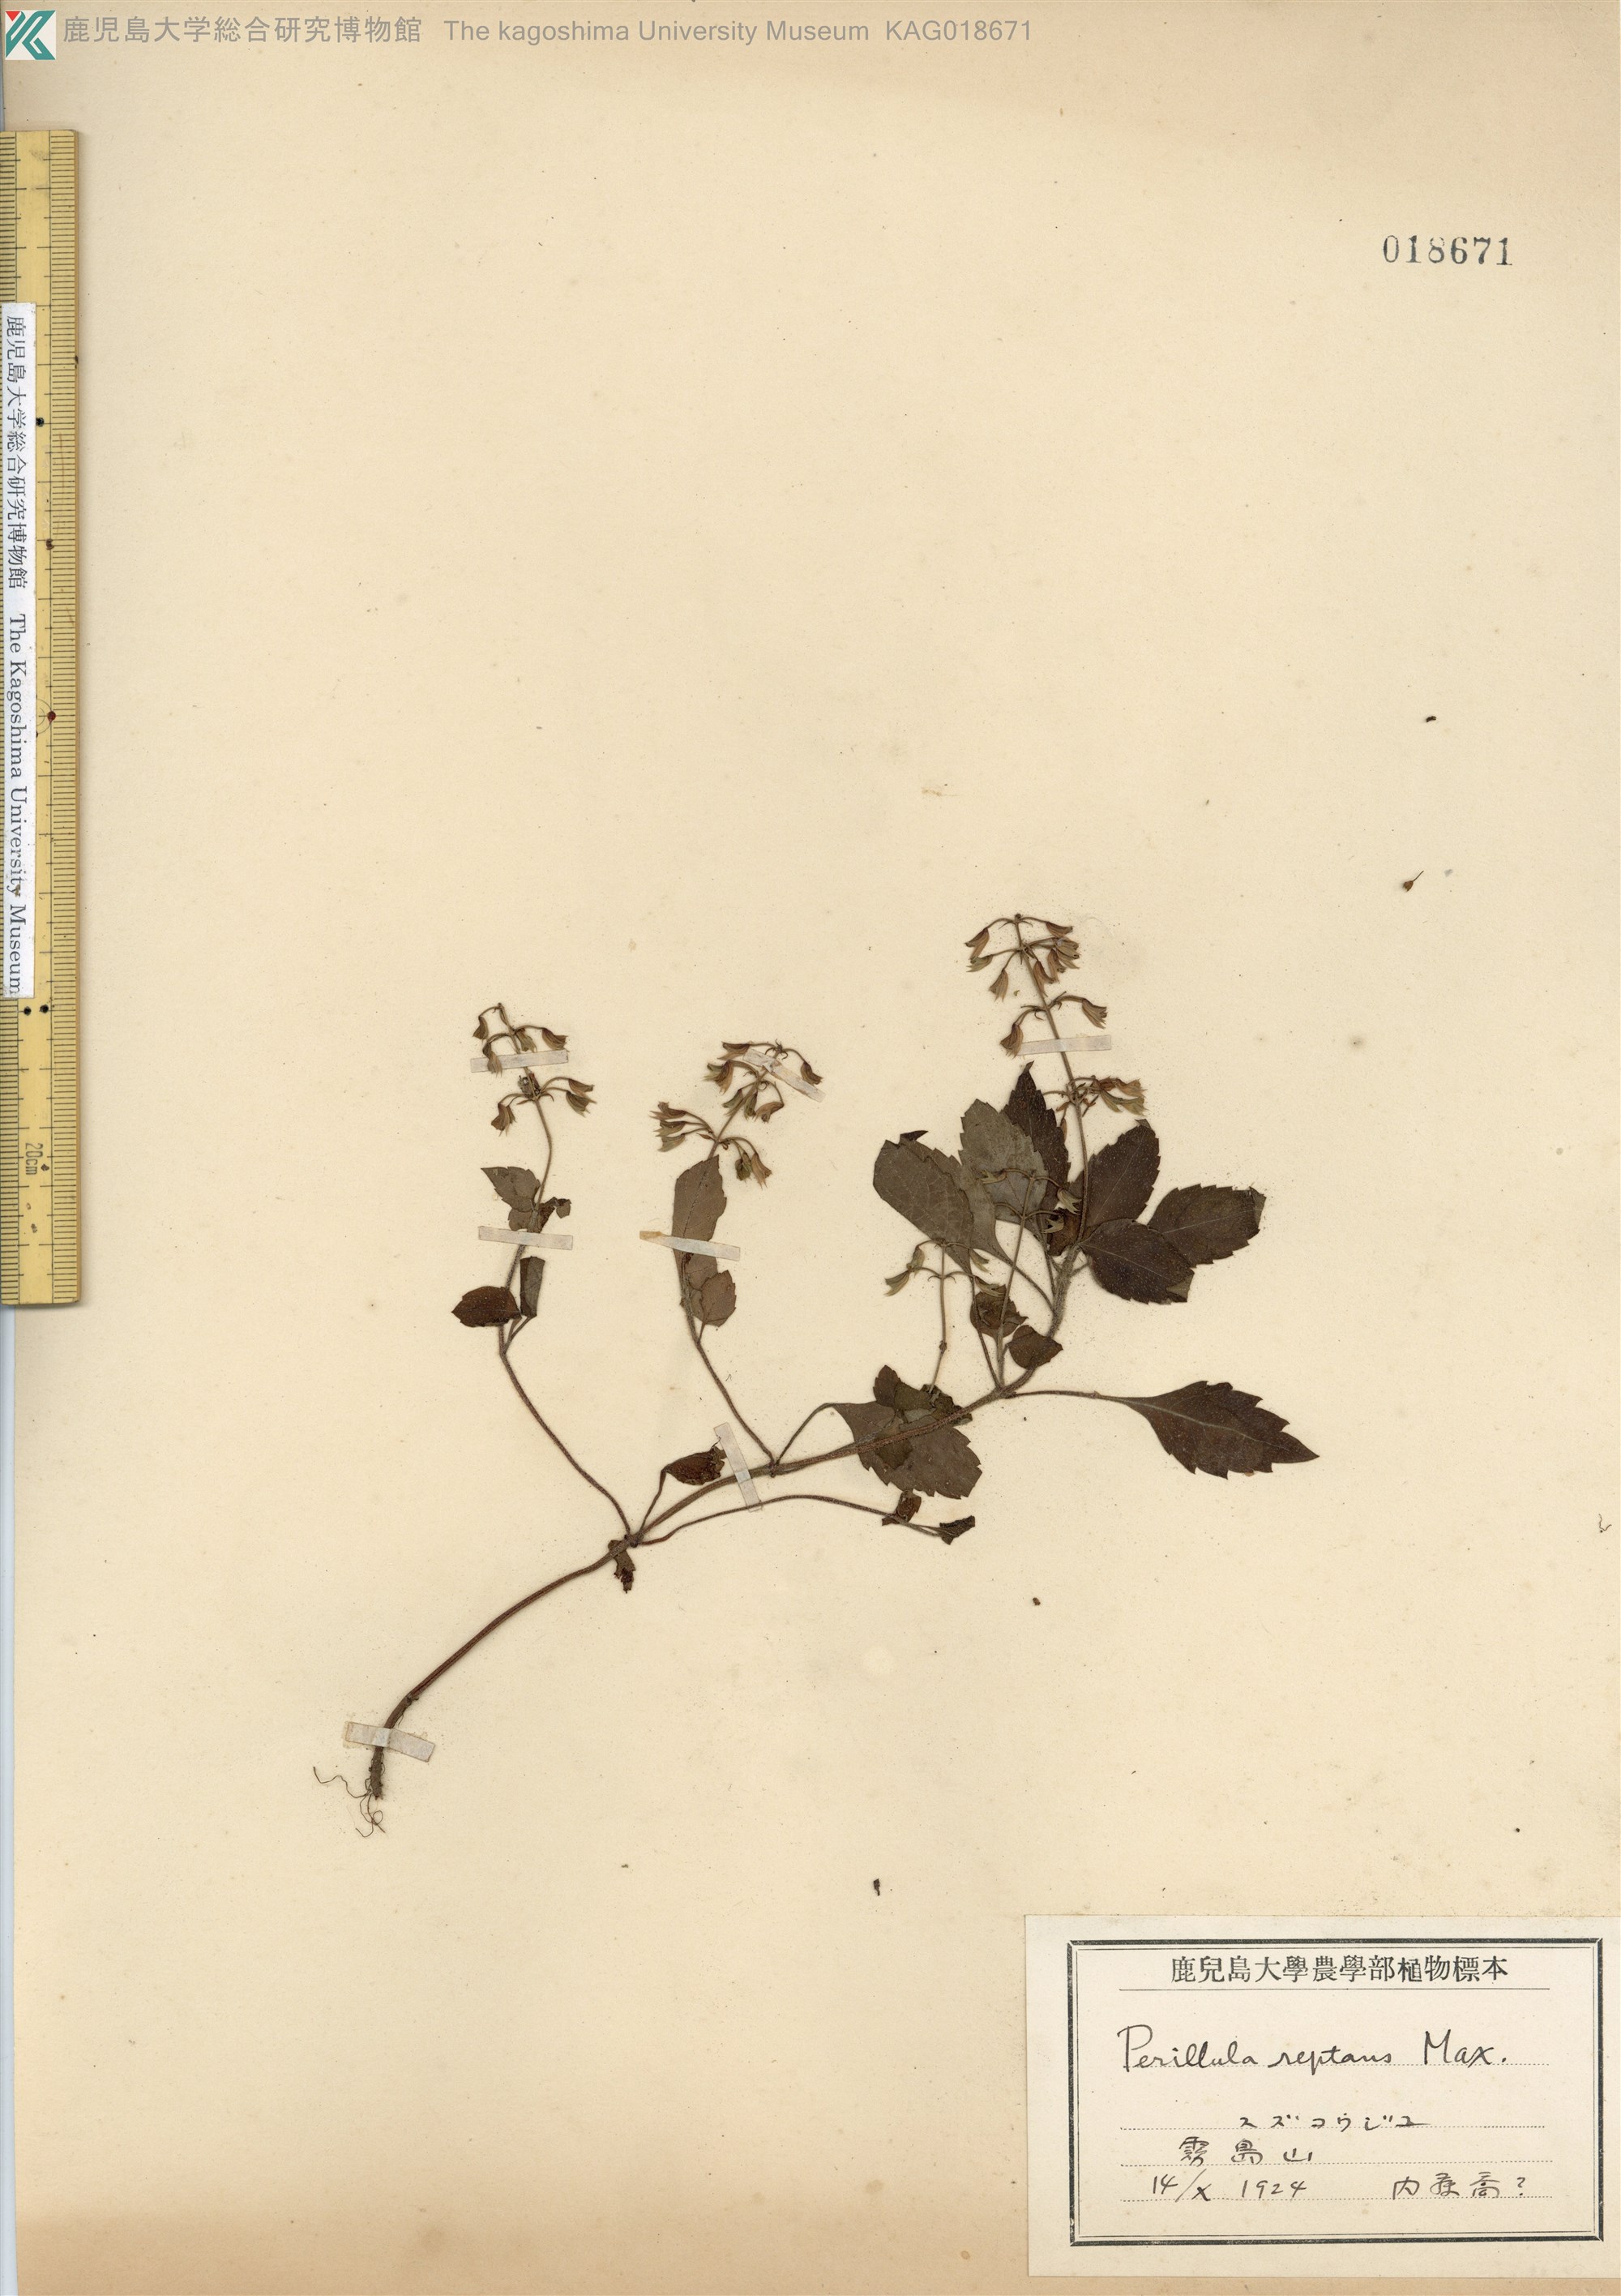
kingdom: Plantae
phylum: Tracheophyta
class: Magnoliopsida
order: Lamiales
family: Lamiaceae
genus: Perillula
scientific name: Perillula reptans
